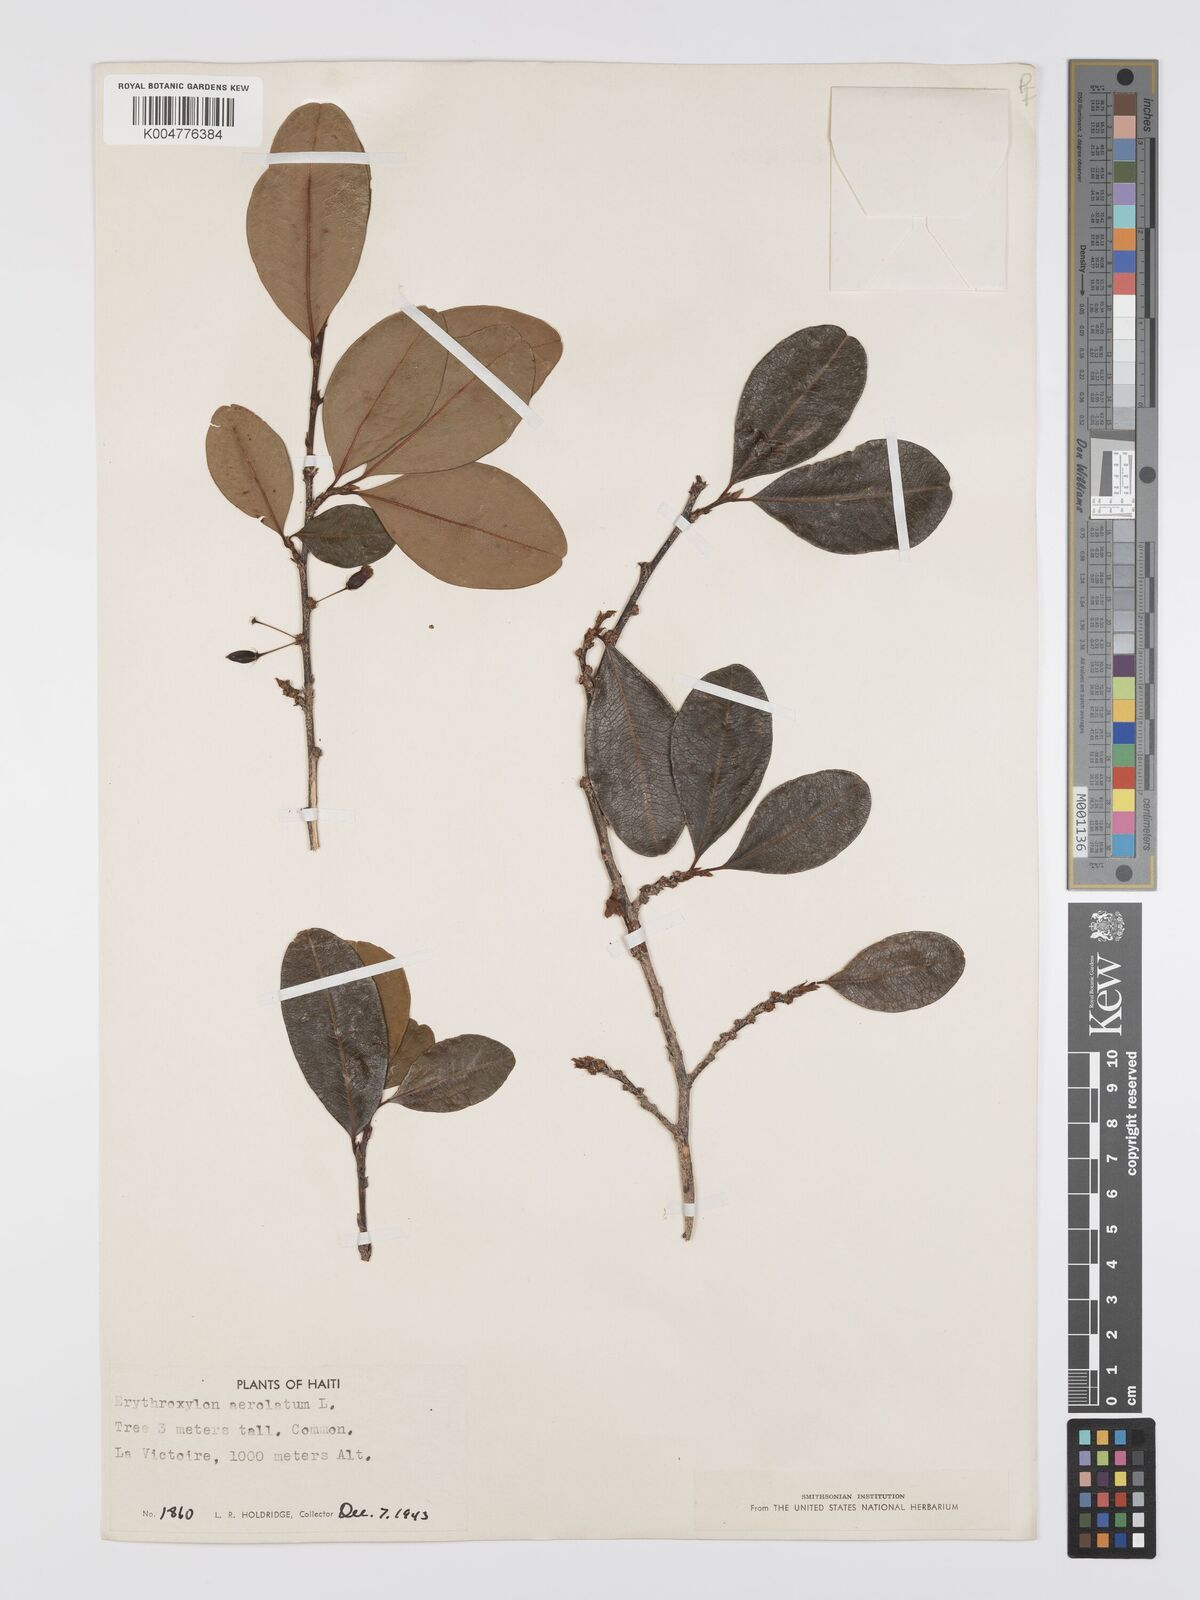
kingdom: Plantae
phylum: Tracheophyta
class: Magnoliopsida
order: Malpighiales
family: Erythroxylaceae
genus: Erythroxylum
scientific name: Erythroxylum areolatum
